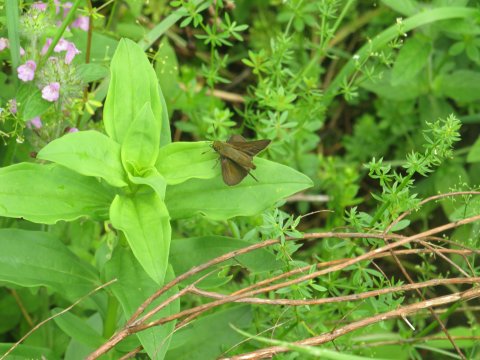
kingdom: Animalia
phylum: Arthropoda
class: Insecta
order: Lepidoptera
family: Hesperiidae
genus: Euphyes
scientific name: Euphyes vestris
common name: Dun Skipper
